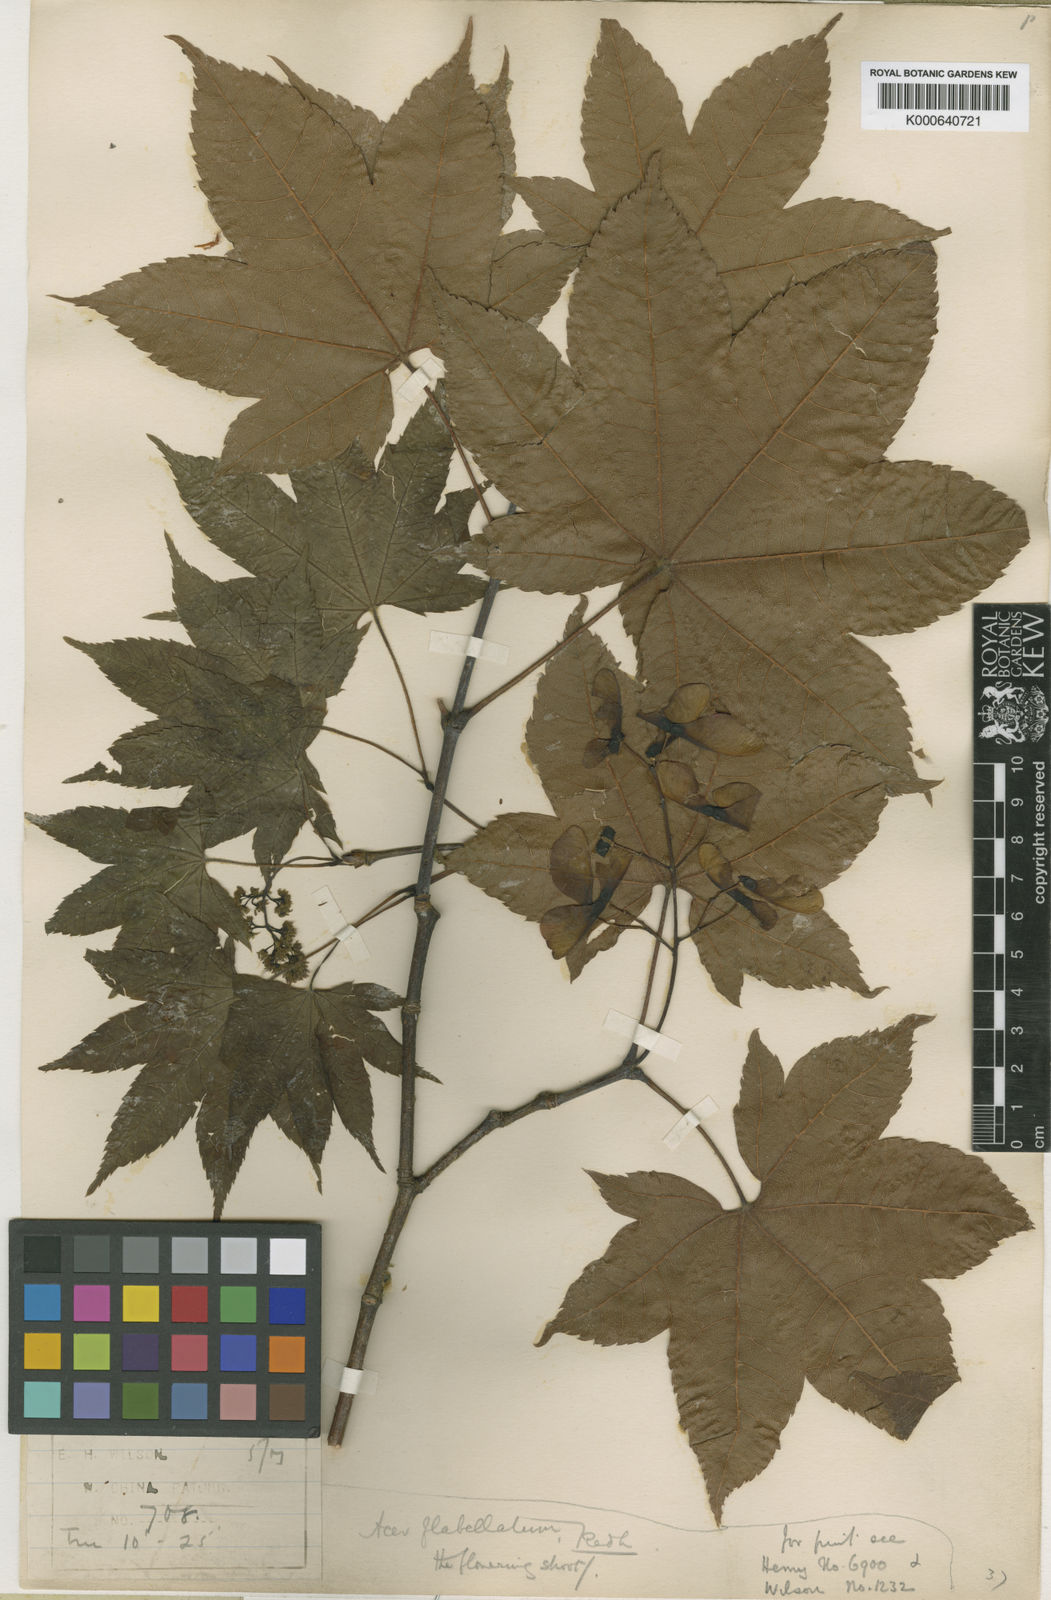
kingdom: Plantae
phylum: Tracheophyta
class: Magnoliopsida
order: Sapindales
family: Sapindaceae
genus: Acer
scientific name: Acer campbellii
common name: Campbell's maple
